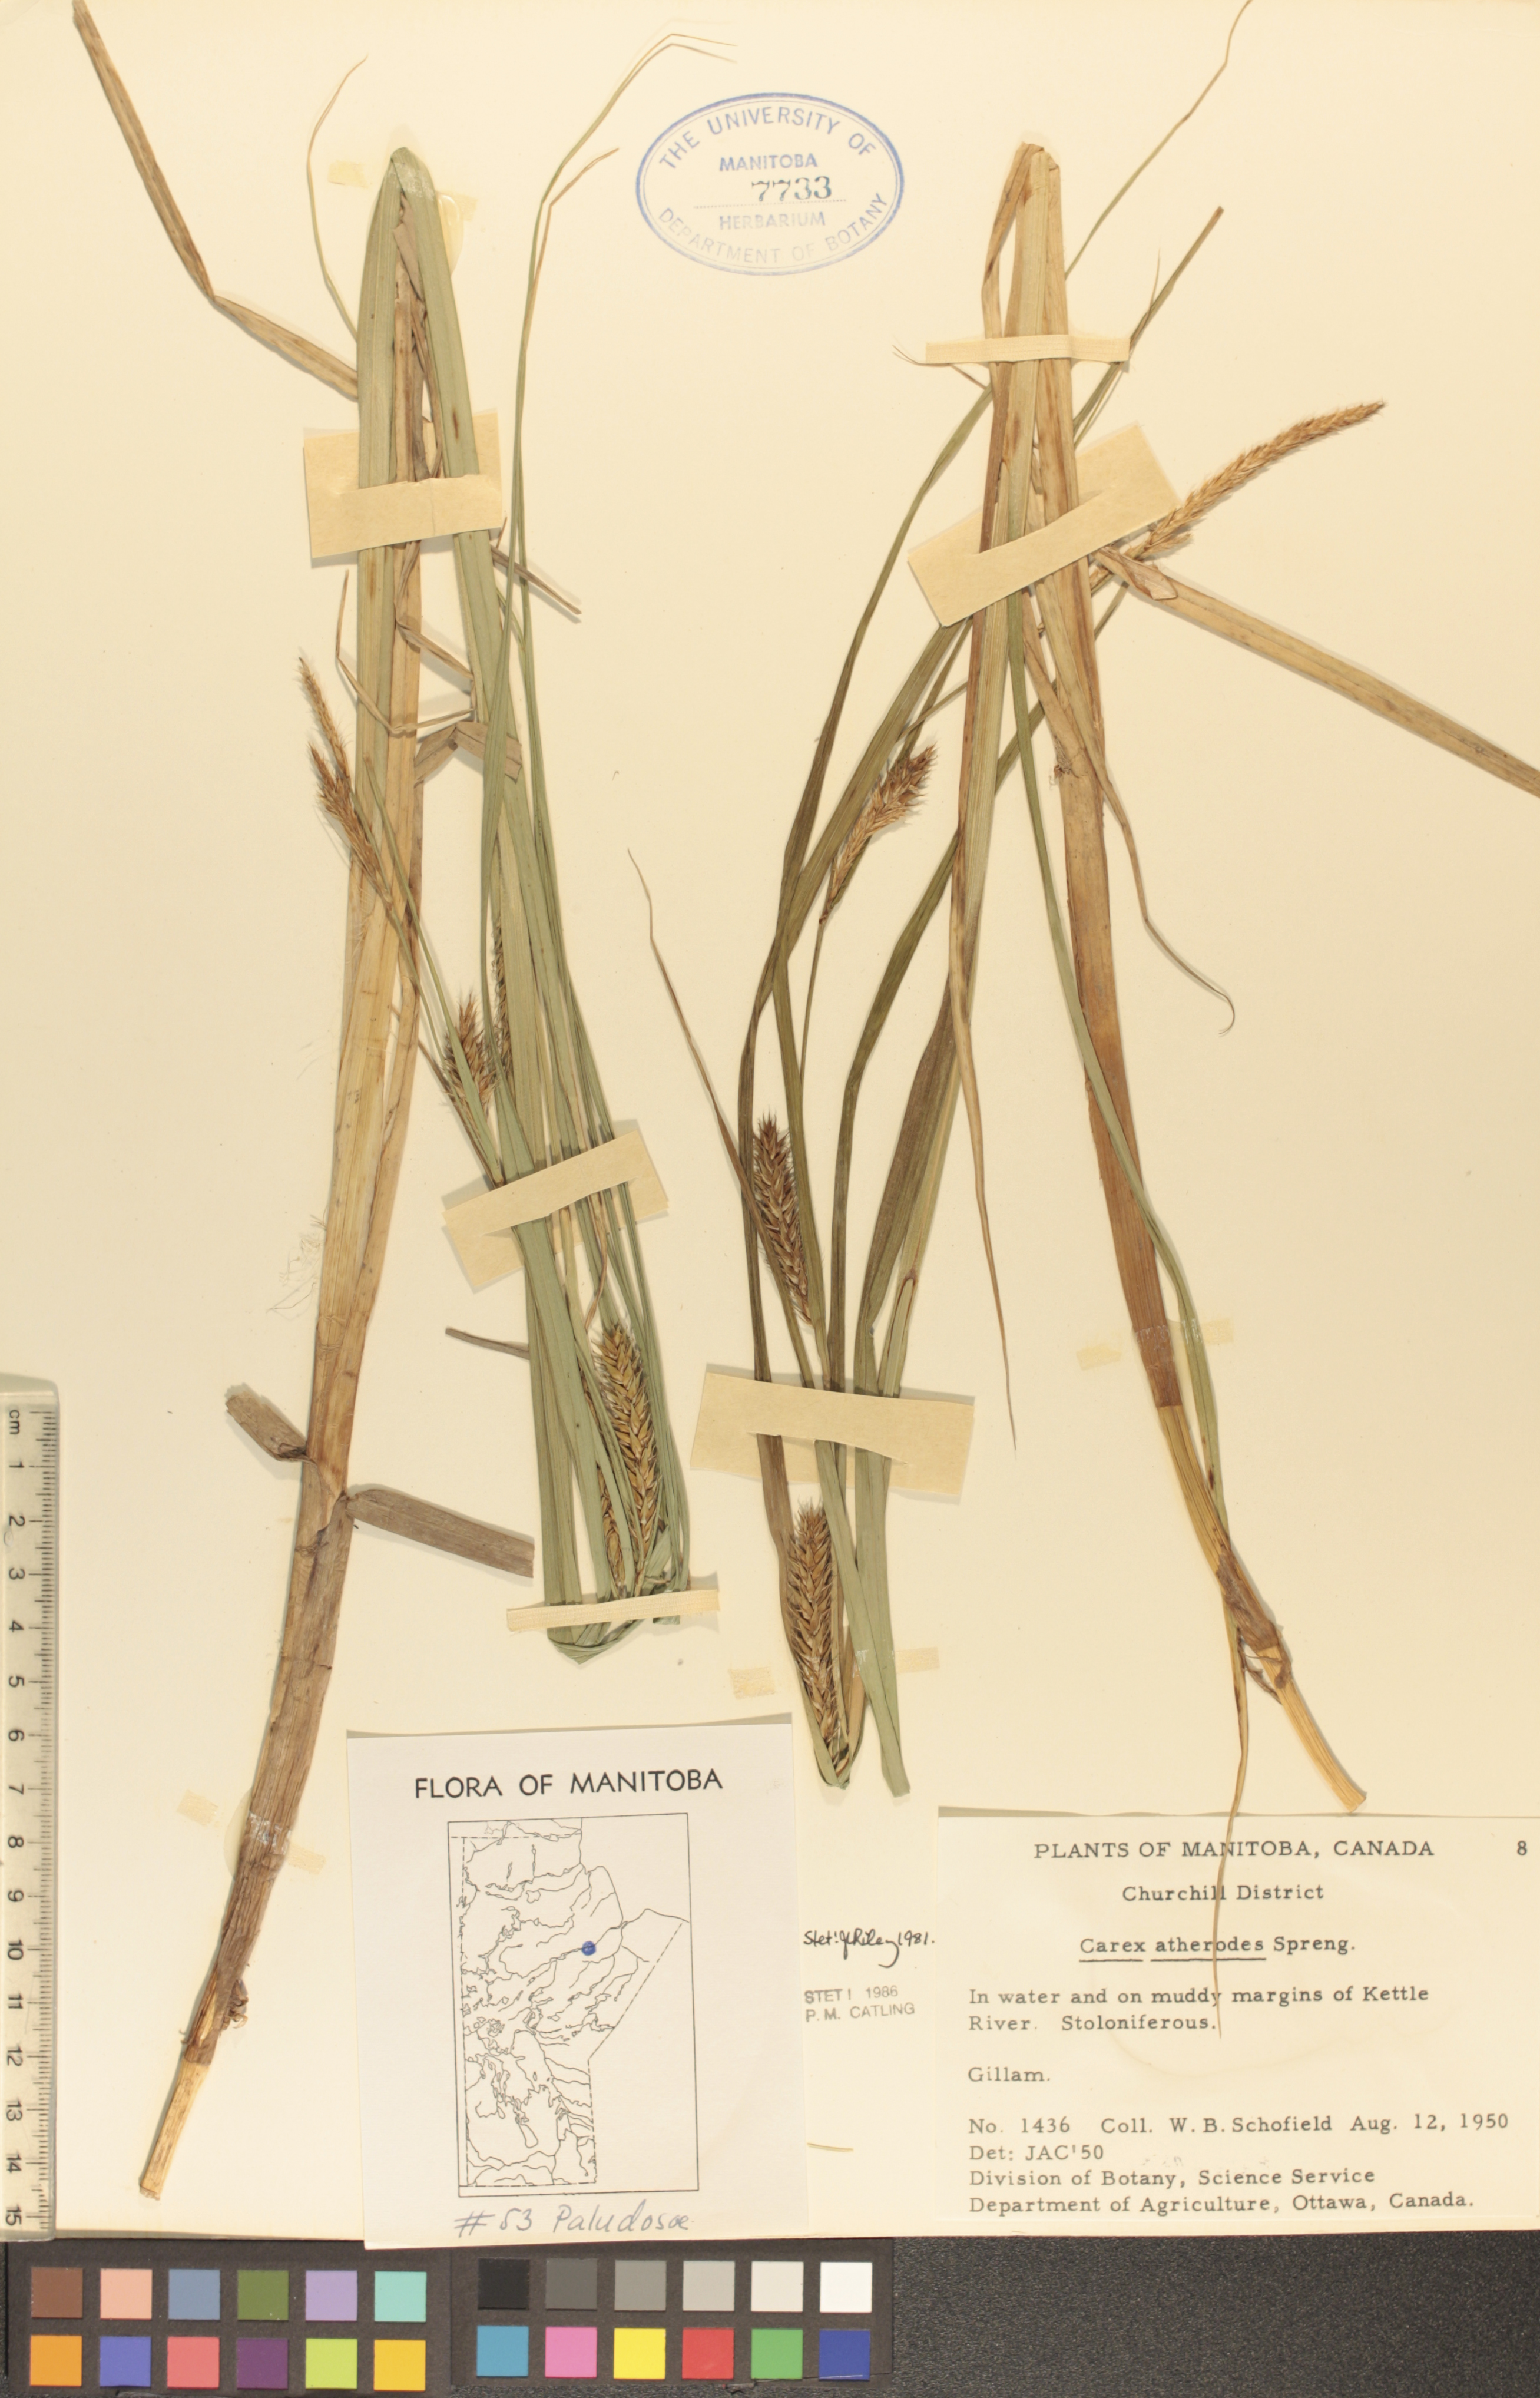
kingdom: Plantae
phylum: Tracheophyta
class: Liliopsida
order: Poales
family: Cyperaceae
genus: Carex
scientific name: Carex atherodes
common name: Wheat sedge
